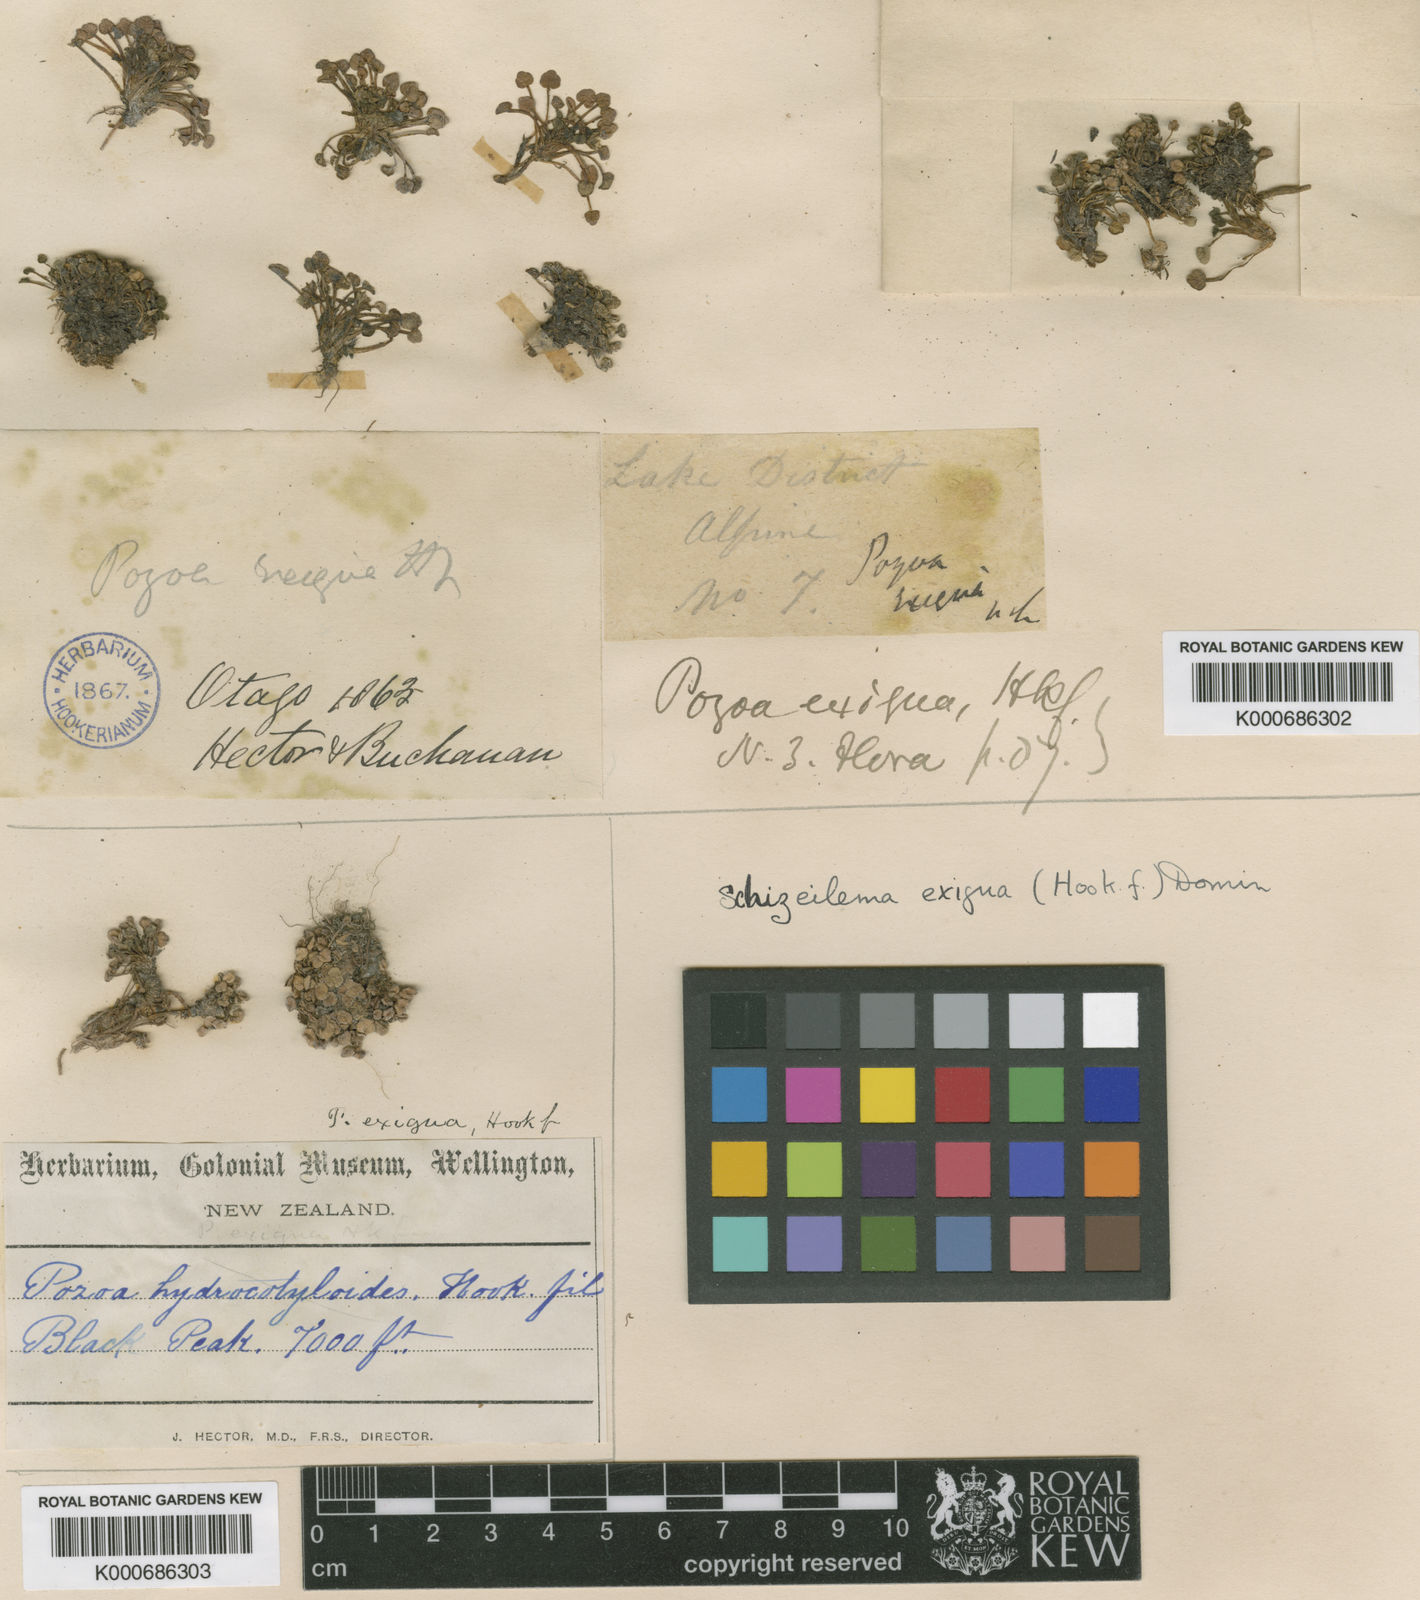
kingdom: Plantae
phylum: Tracheophyta
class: Magnoliopsida
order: Apiales
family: Apiaceae
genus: Azorella
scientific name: Azorella exigua
